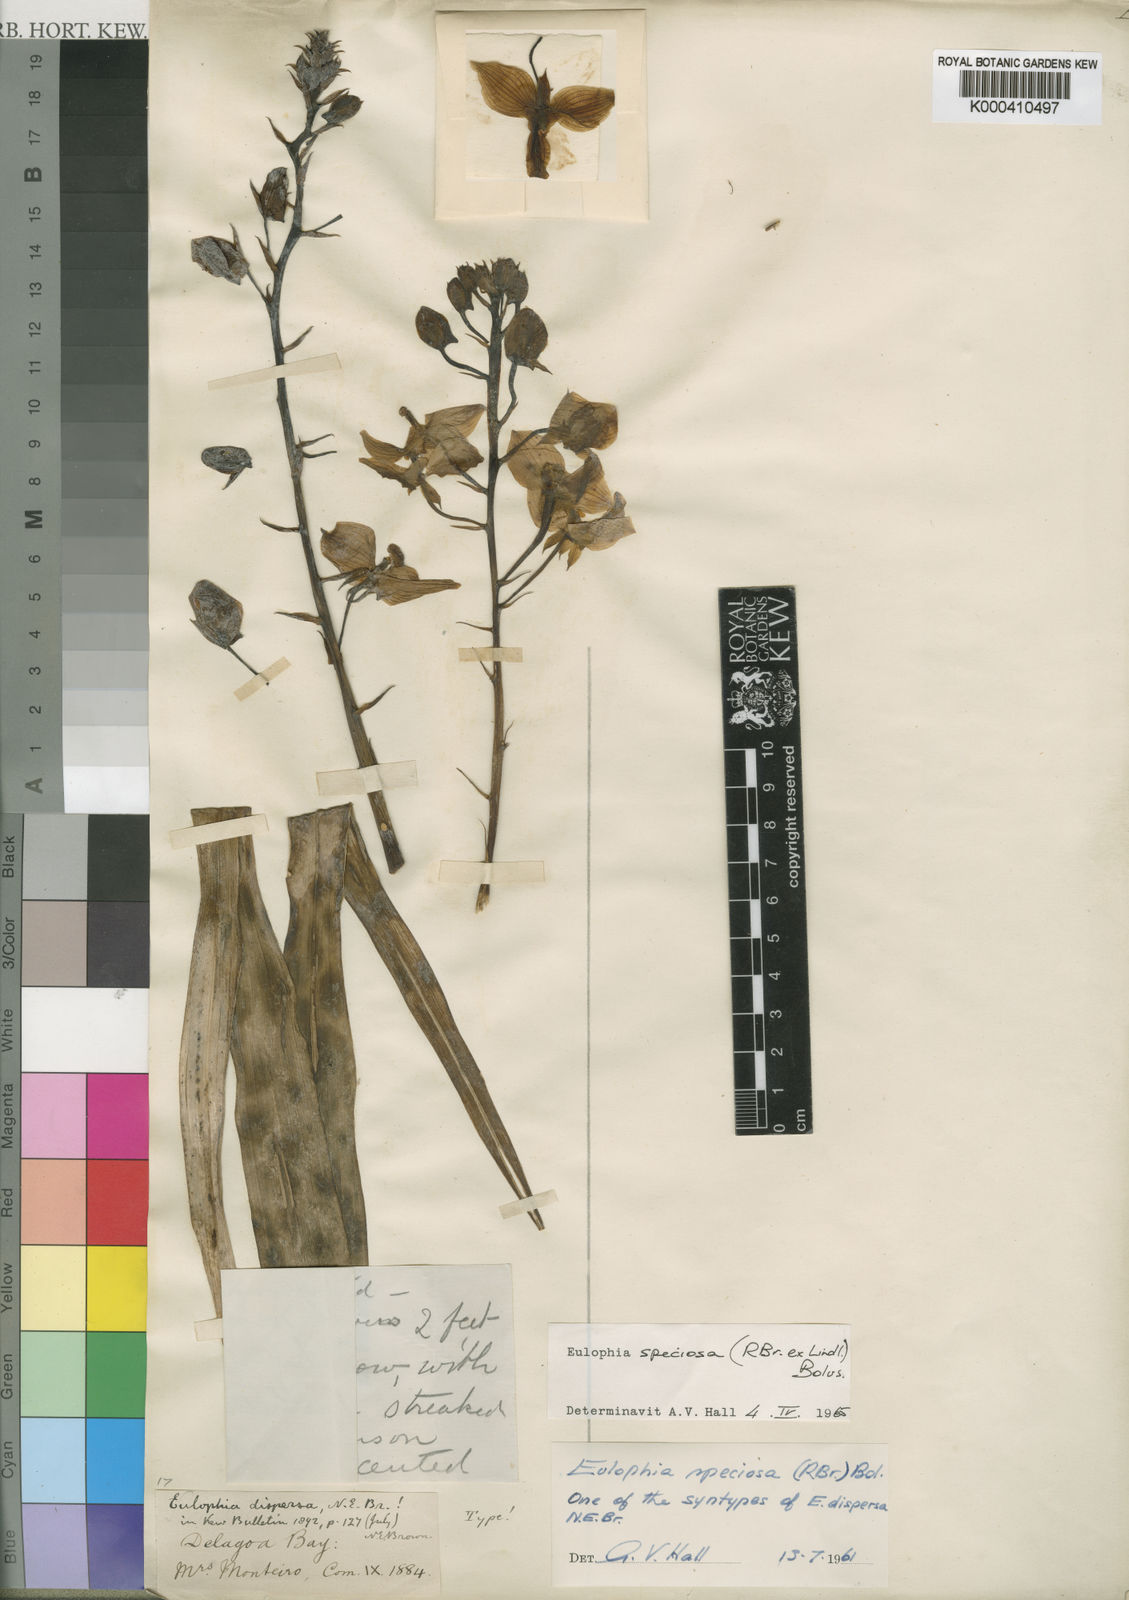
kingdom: Plantae
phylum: Tracheophyta
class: Liliopsida
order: Asparagales
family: Orchidaceae
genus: Eulophia
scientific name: Eulophia speciosa
